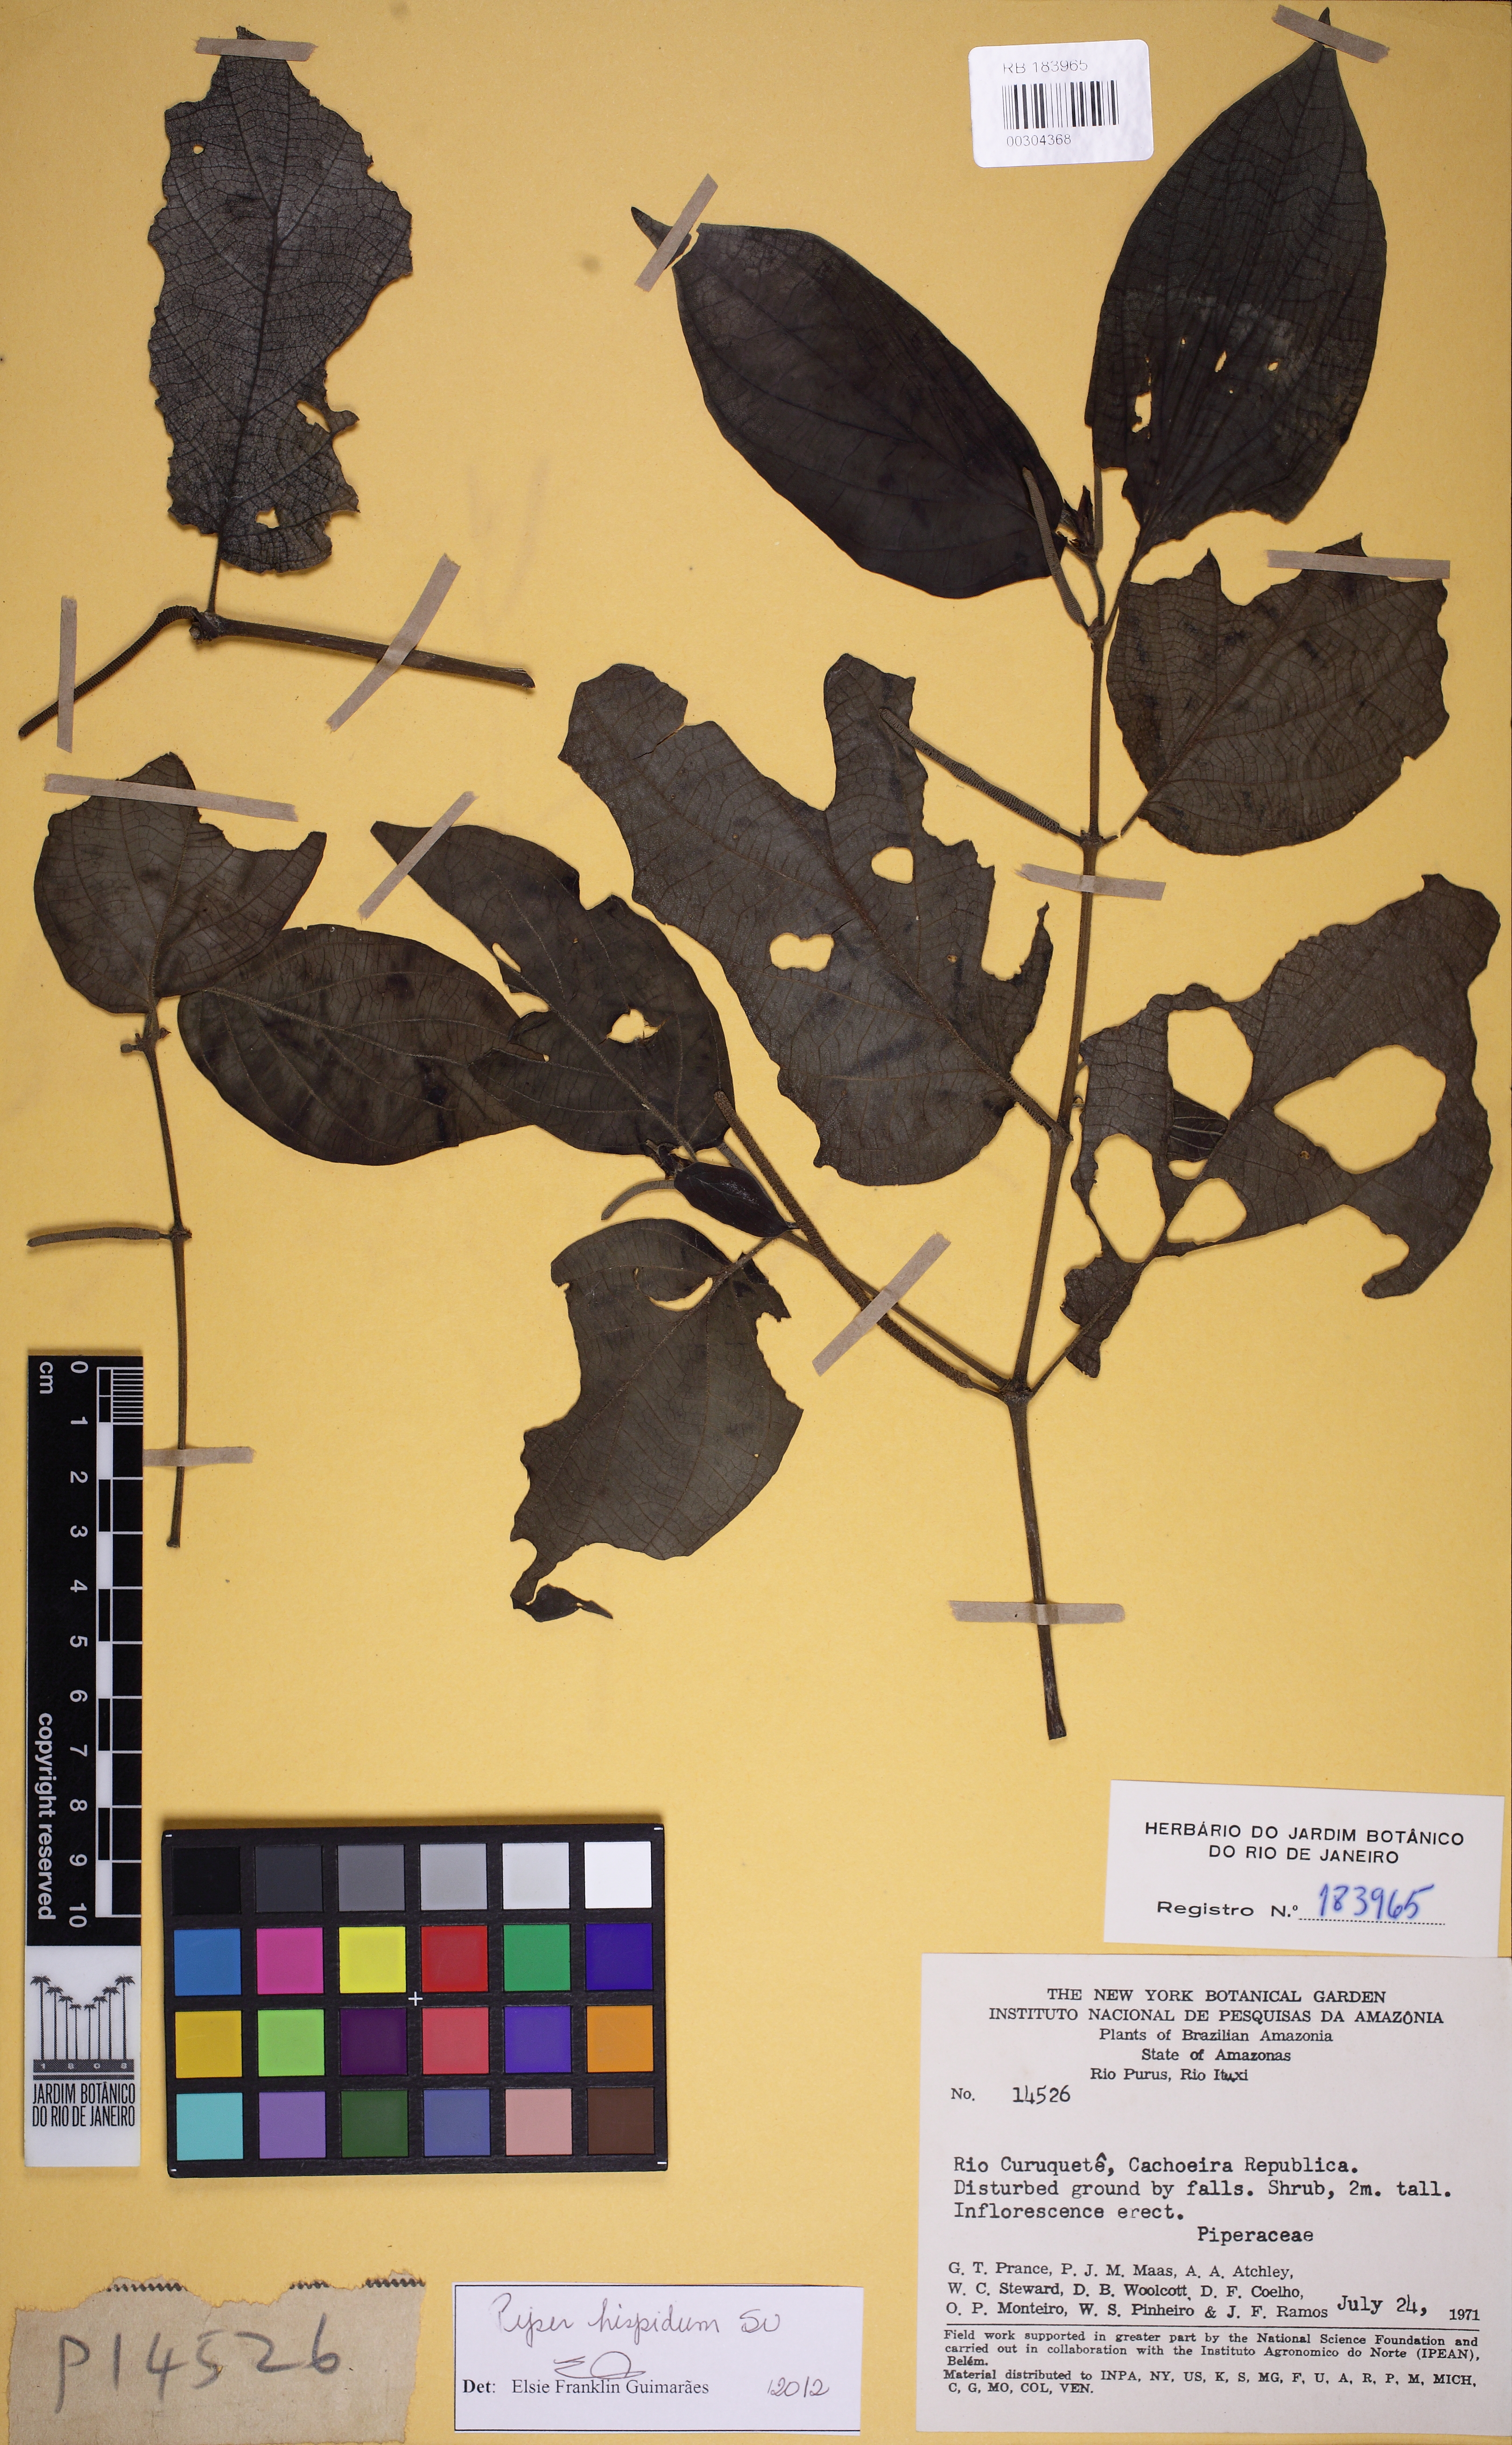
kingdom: Plantae
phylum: Tracheophyta
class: Magnoliopsida
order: Piperales
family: Piperaceae
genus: Piper
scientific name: Piper hispidum
